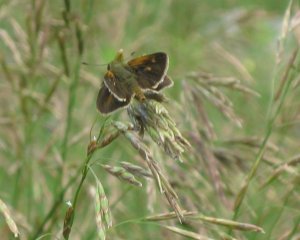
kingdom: Animalia
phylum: Arthropoda
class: Insecta
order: Lepidoptera
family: Hesperiidae
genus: Polites
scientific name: Polites themistocles
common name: Tawny-edged Skipper
